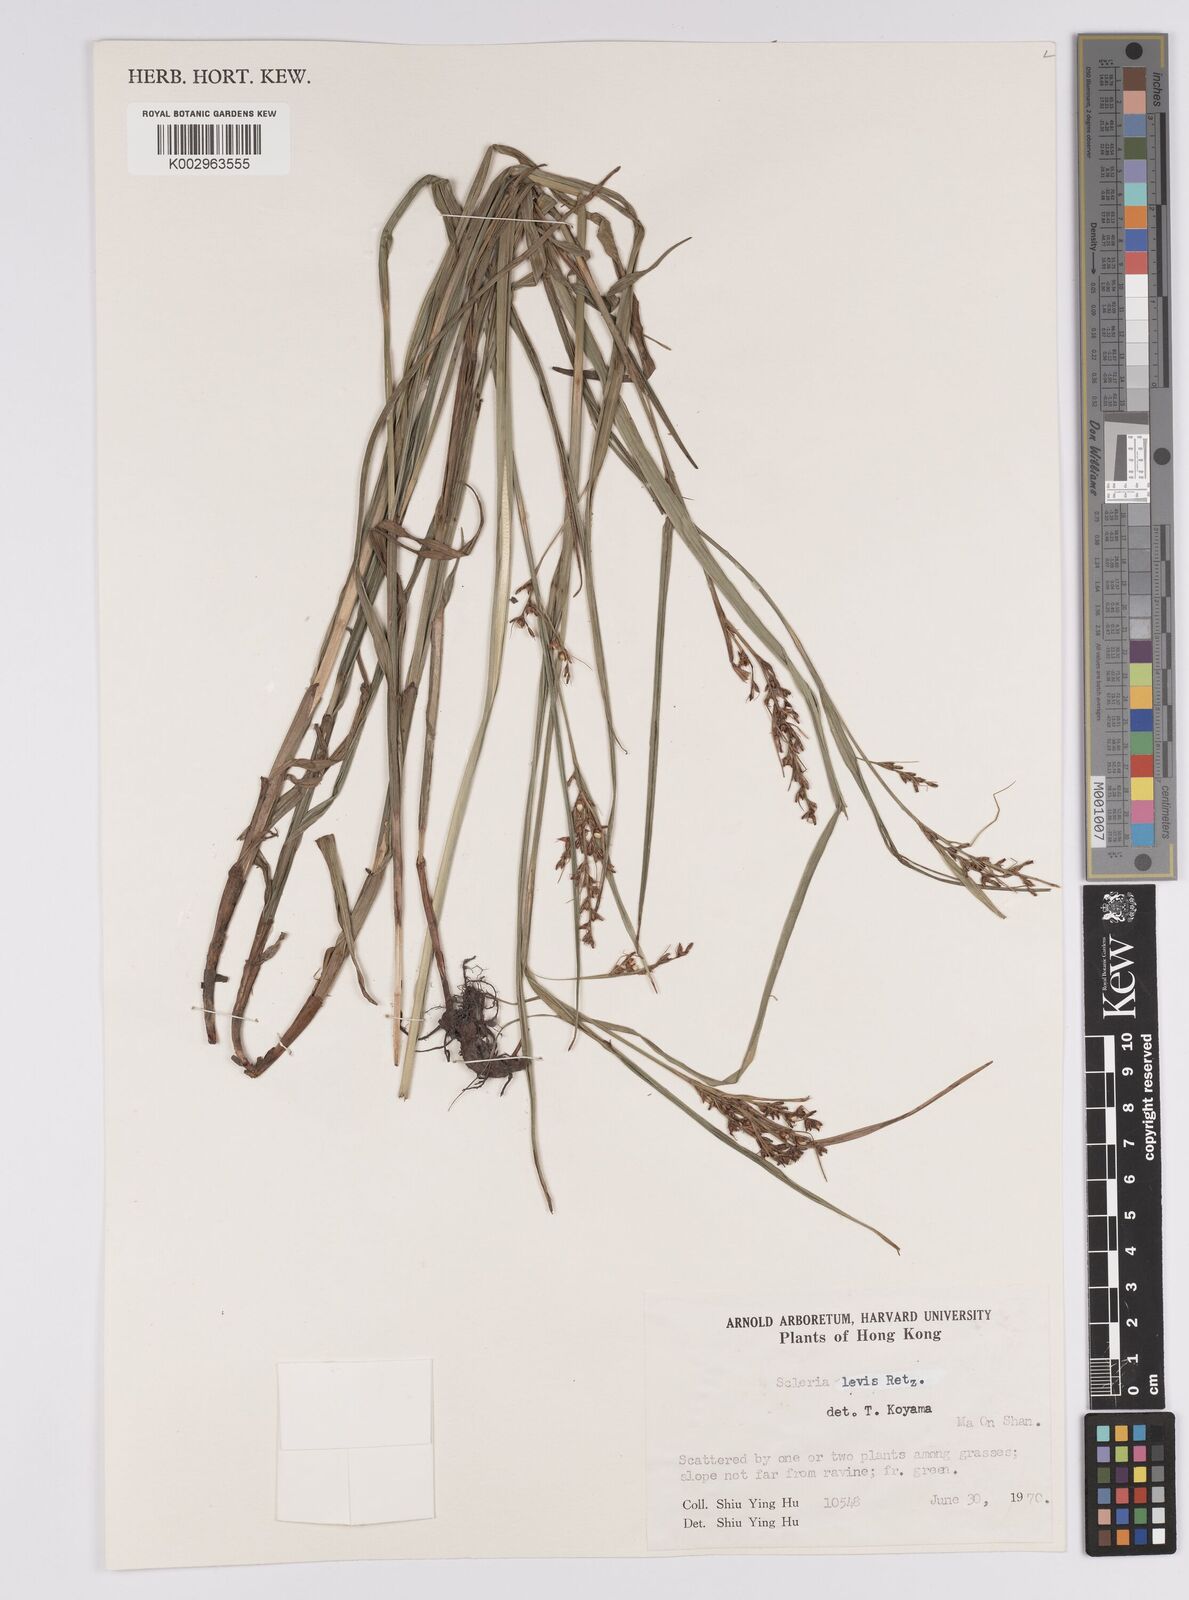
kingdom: Plantae
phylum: Tracheophyta
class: Liliopsida
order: Poales
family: Cyperaceae
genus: Scleria
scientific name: Scleria levis
